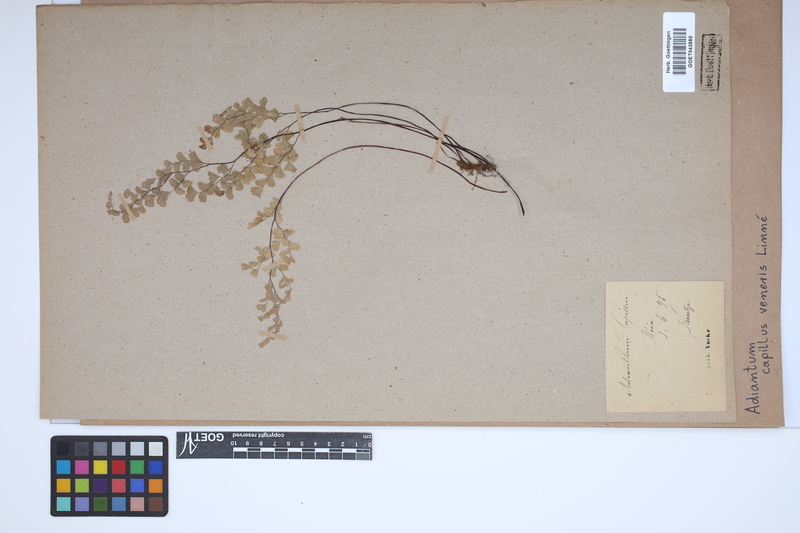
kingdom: Plantae
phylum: Tracheophyta
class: Polypodiopsida
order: Polypodiales
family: Pteridaceae
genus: Adiantum
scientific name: Adiantum capillus-veneris
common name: Maidenhair fern
